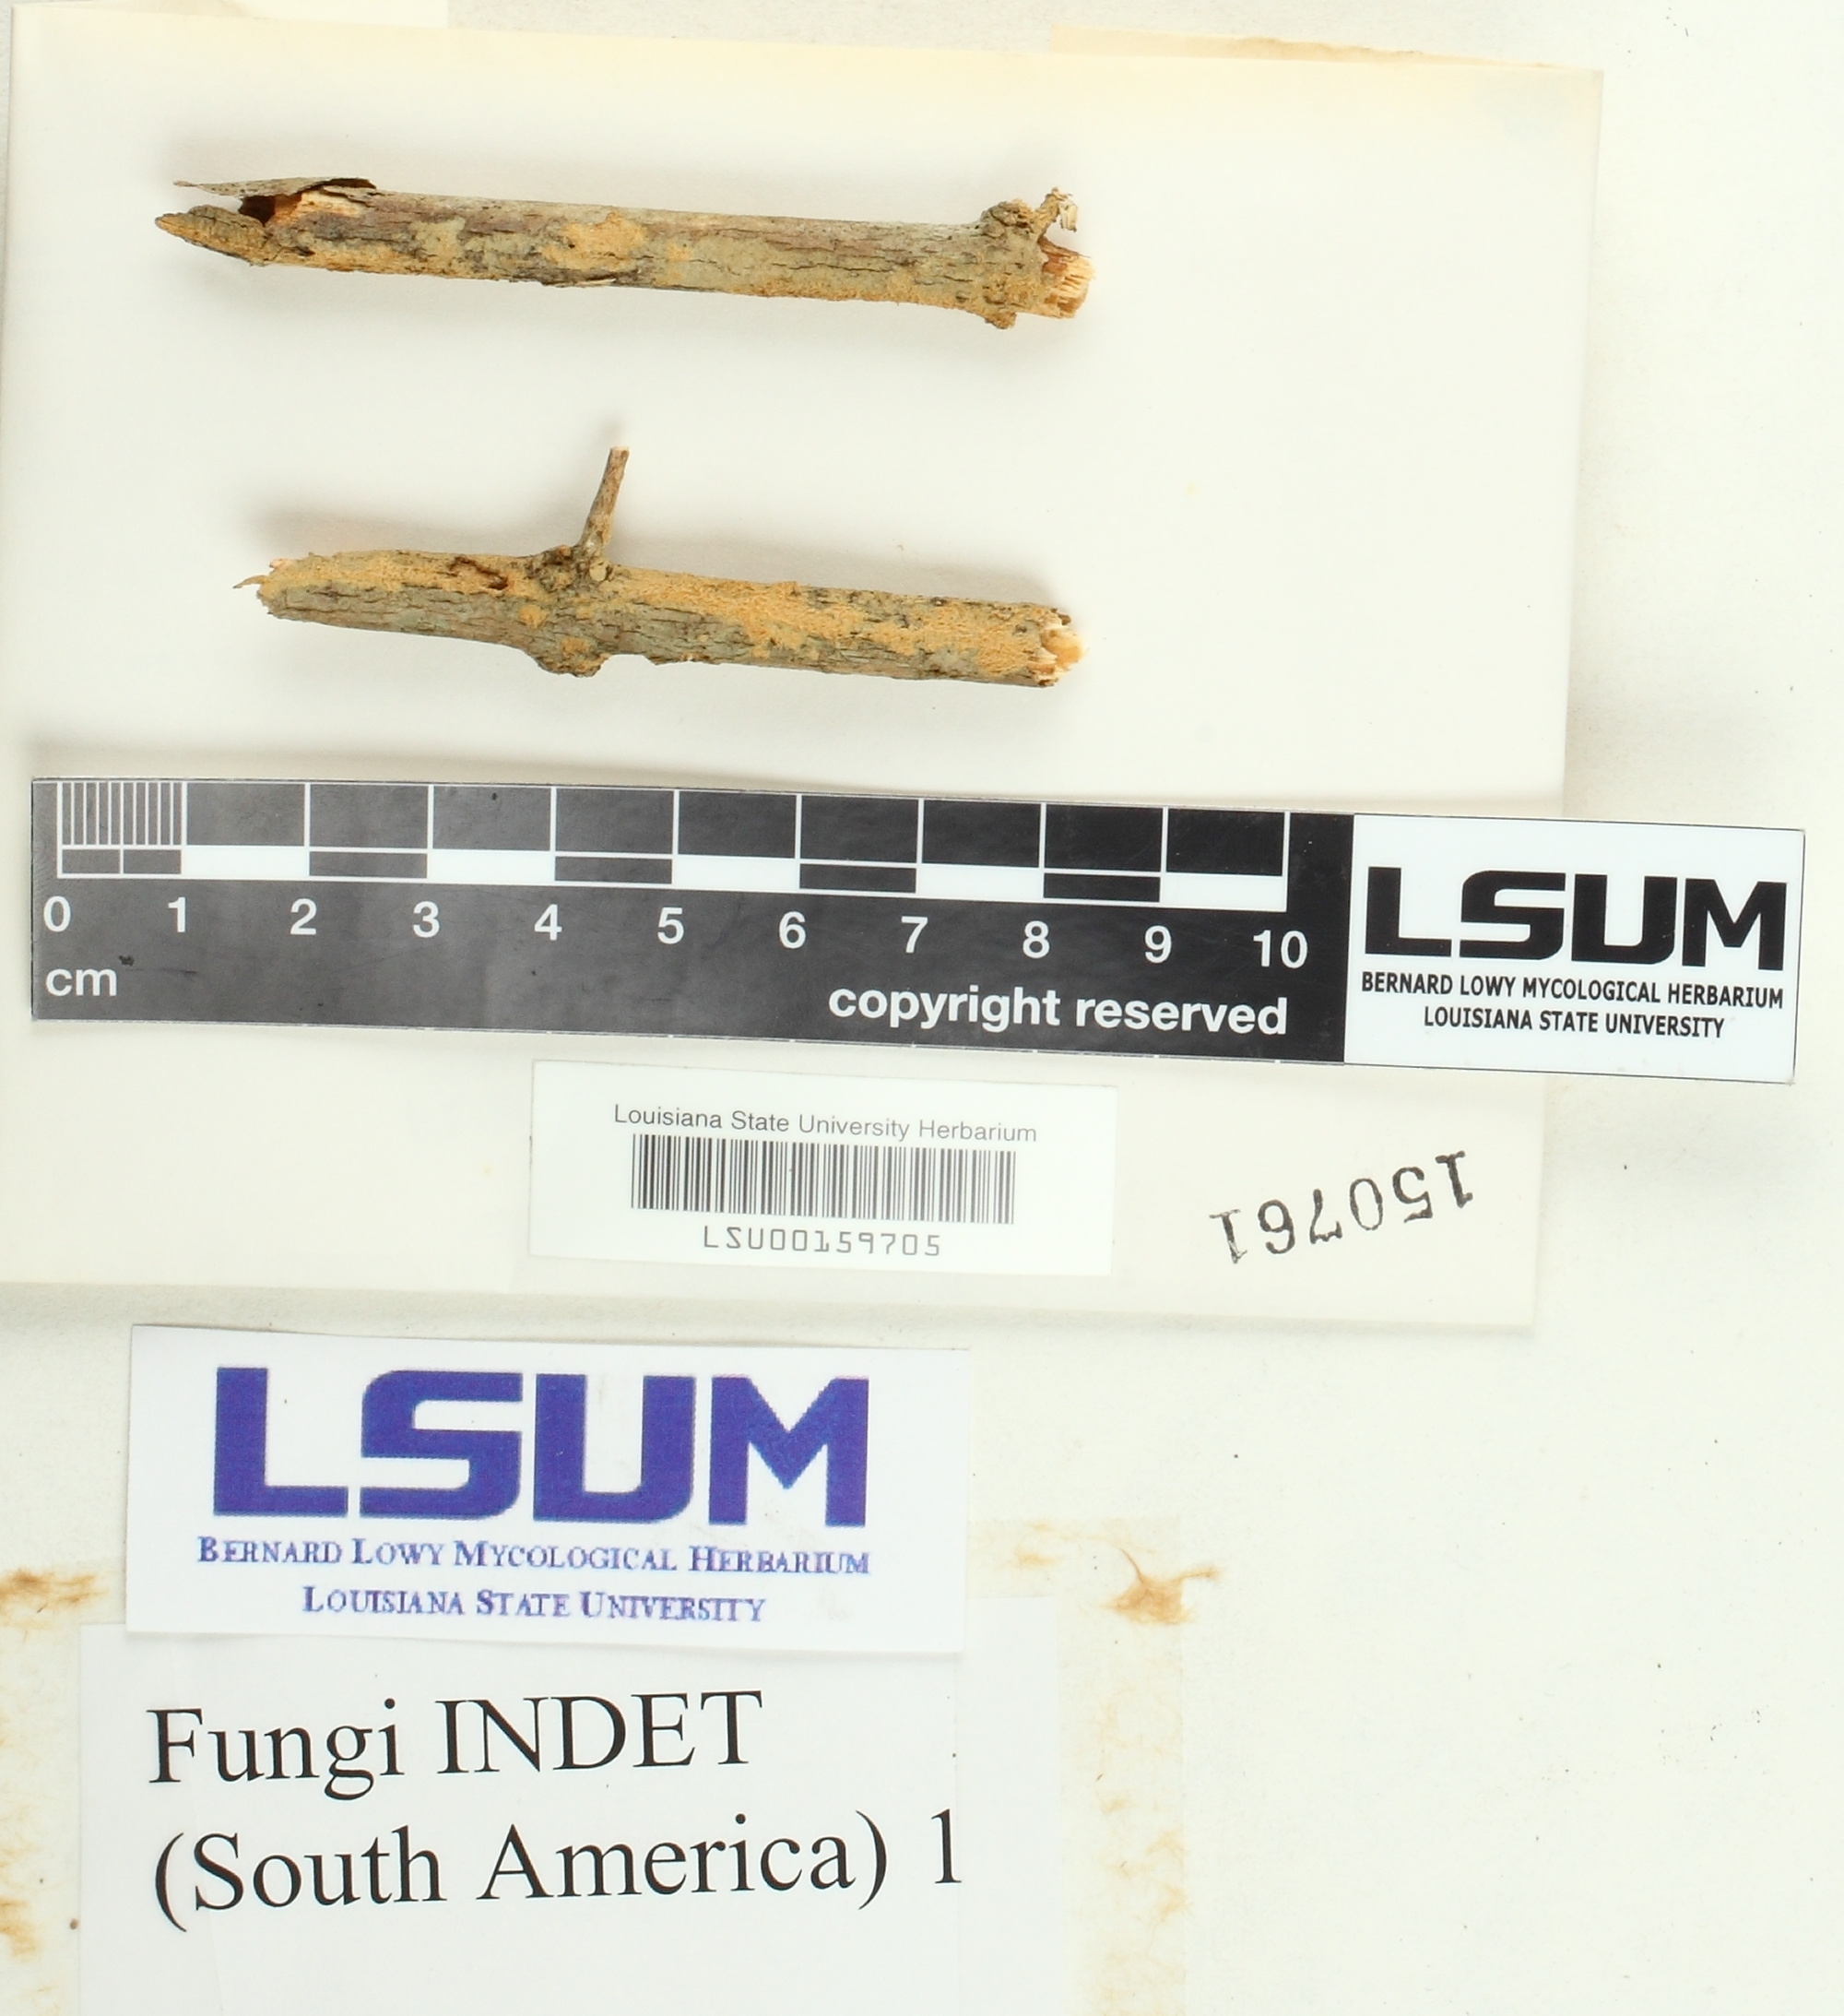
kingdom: Fungi
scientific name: Fungi
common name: Fungi
